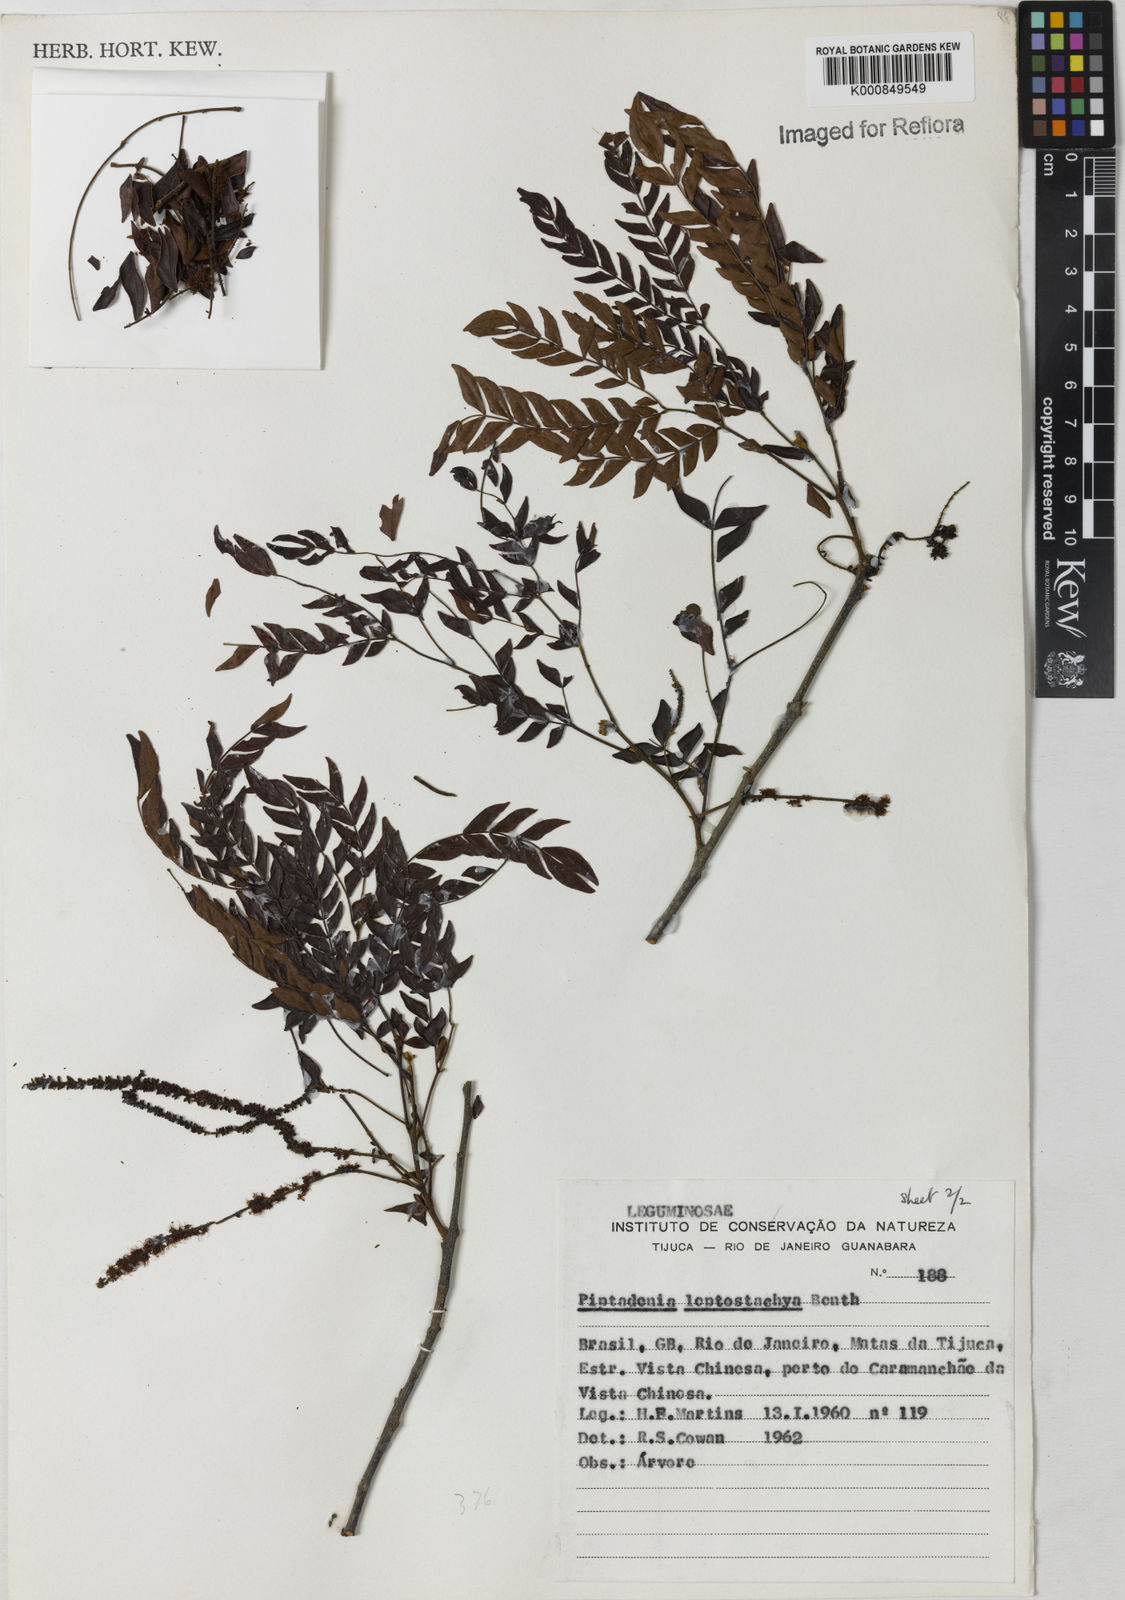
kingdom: Plantae
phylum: Tracheophyta
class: Magnoliopsida
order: Fabales
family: Fabaceae
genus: Pseudopiptadenia
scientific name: Pseudopiptadenia leptostachya
